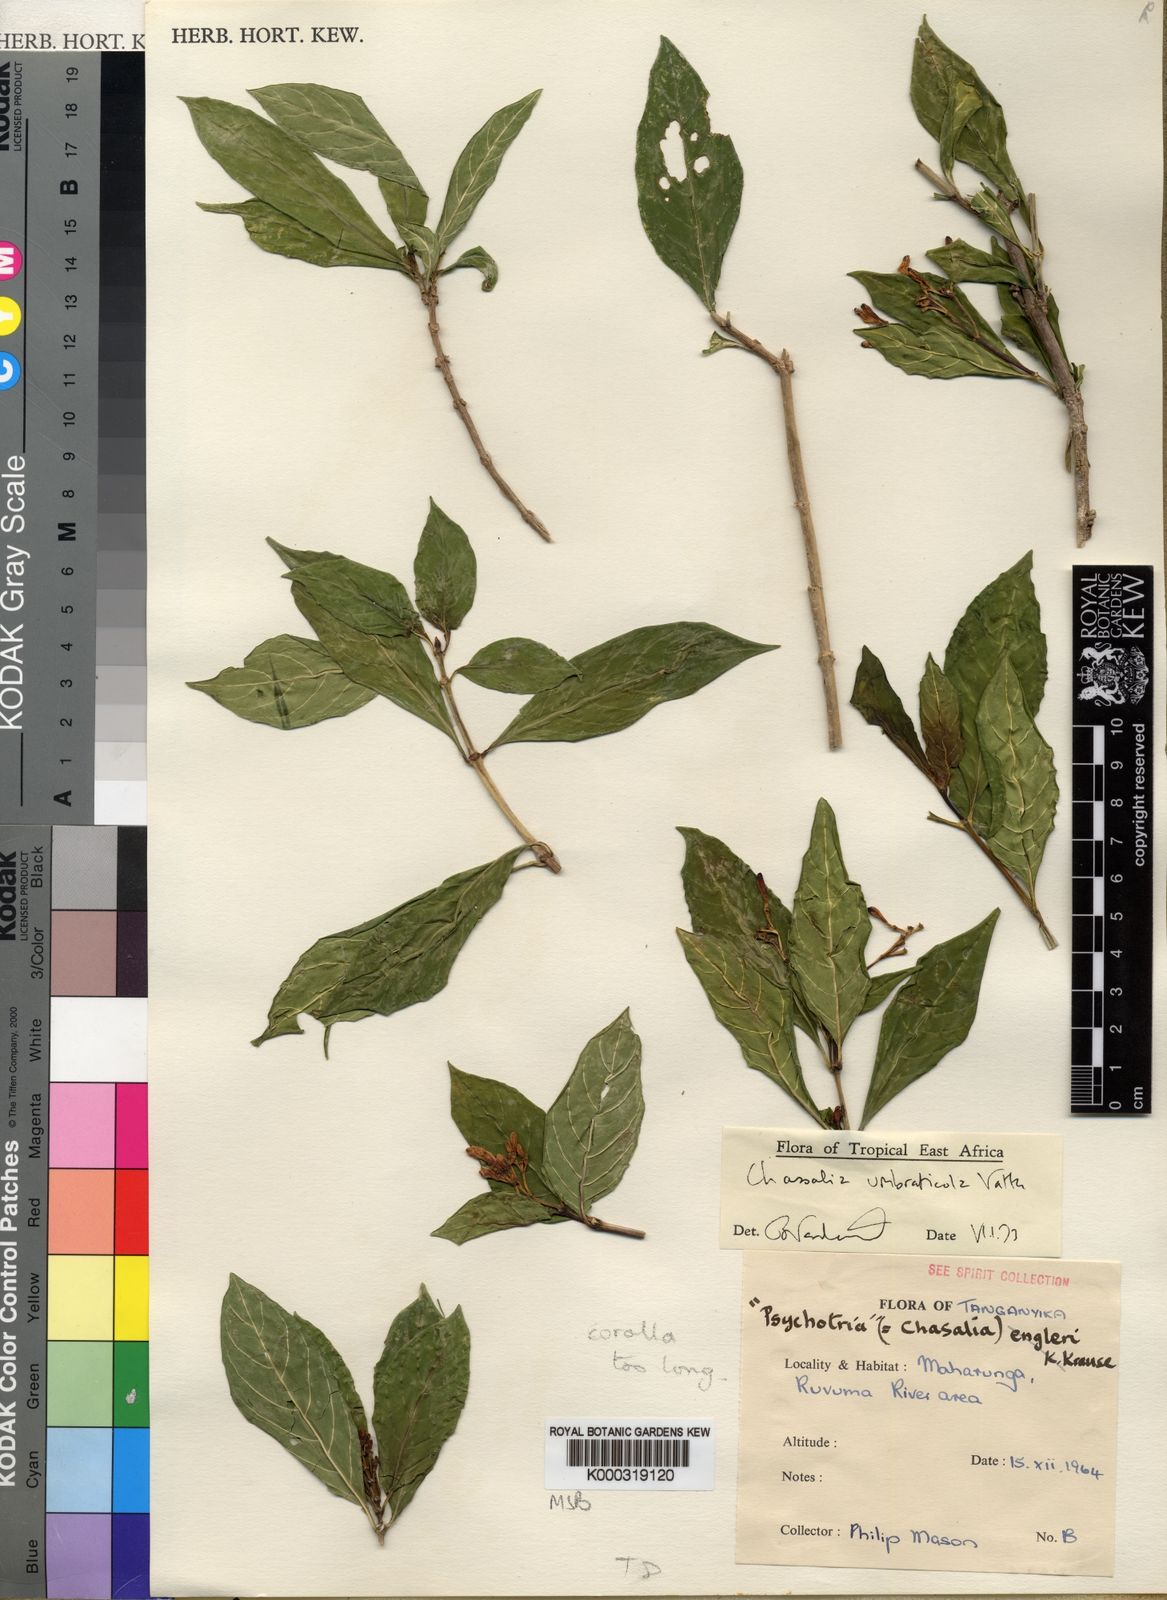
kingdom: Plantae
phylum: Tracheophyta
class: Magnoliopsida
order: Gentianales
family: Rubiaceae
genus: Chassalia
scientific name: Chassalia umbraticola
